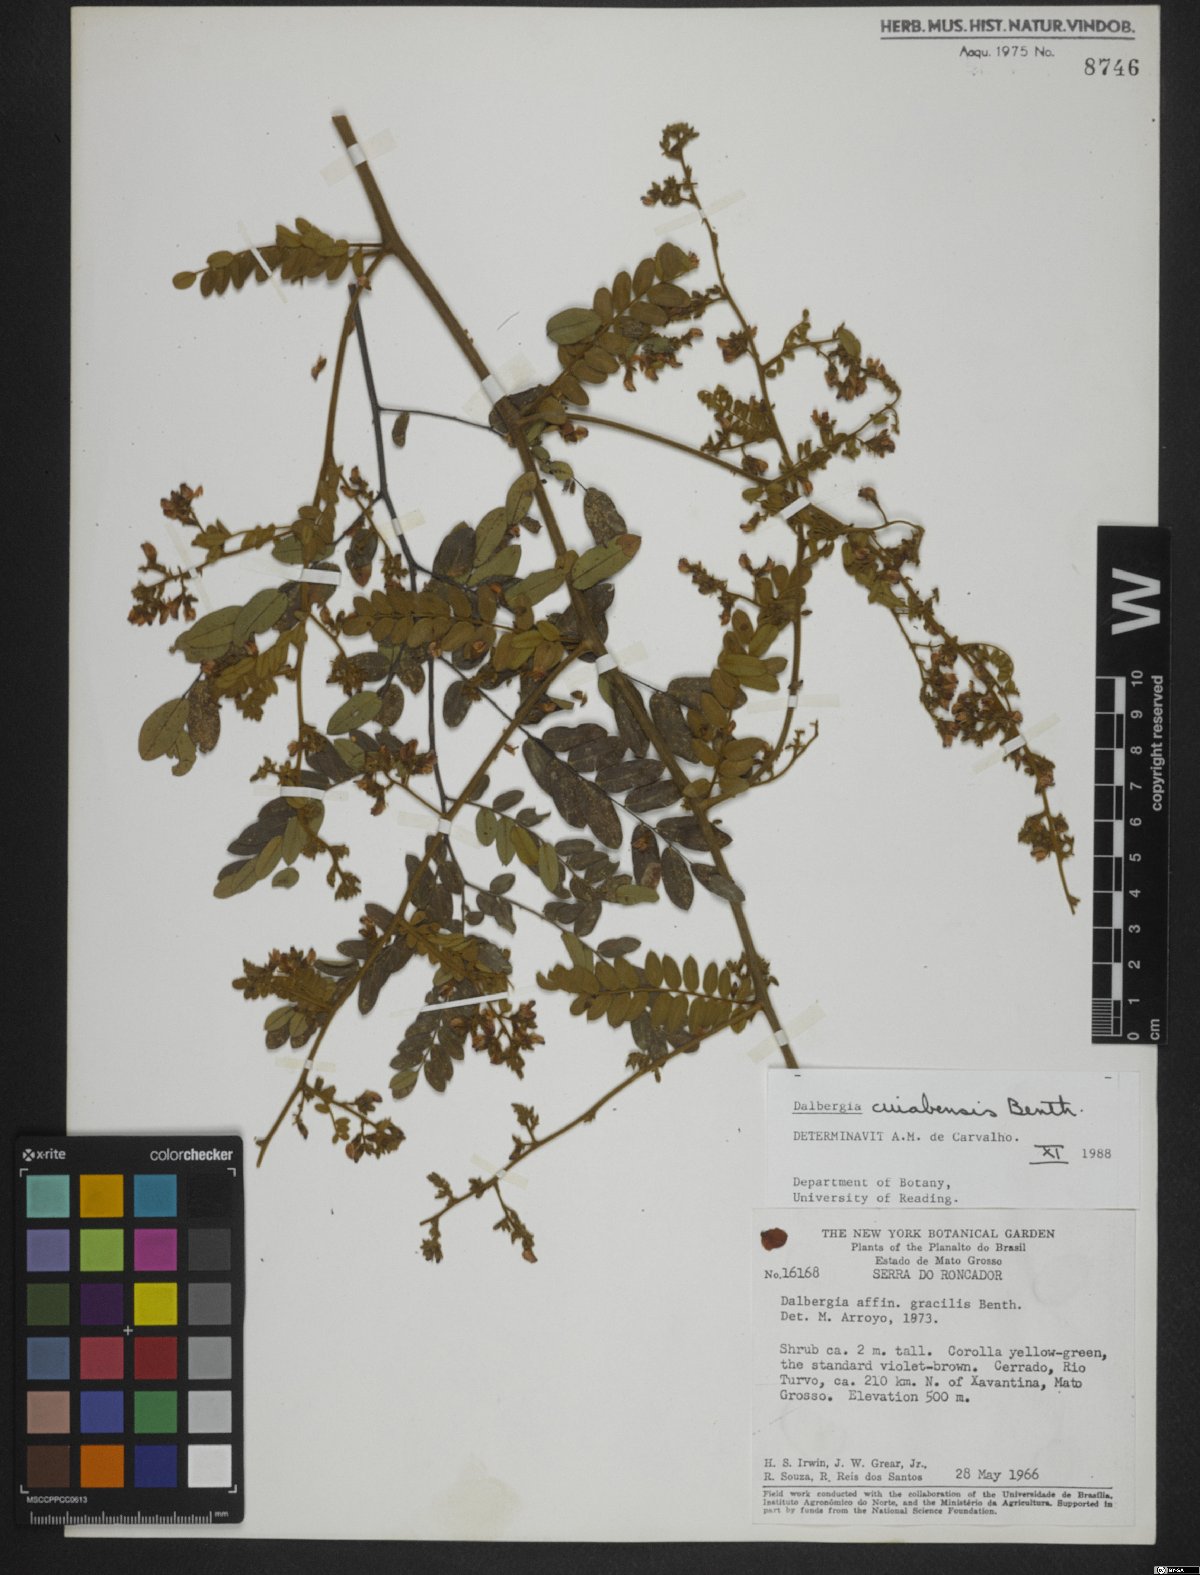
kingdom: Plantae
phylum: Tracheophyta
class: Magnoliopsida
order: Fabales
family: Fabaceae
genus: Dalbergia
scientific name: Dalbergia cujabensis
